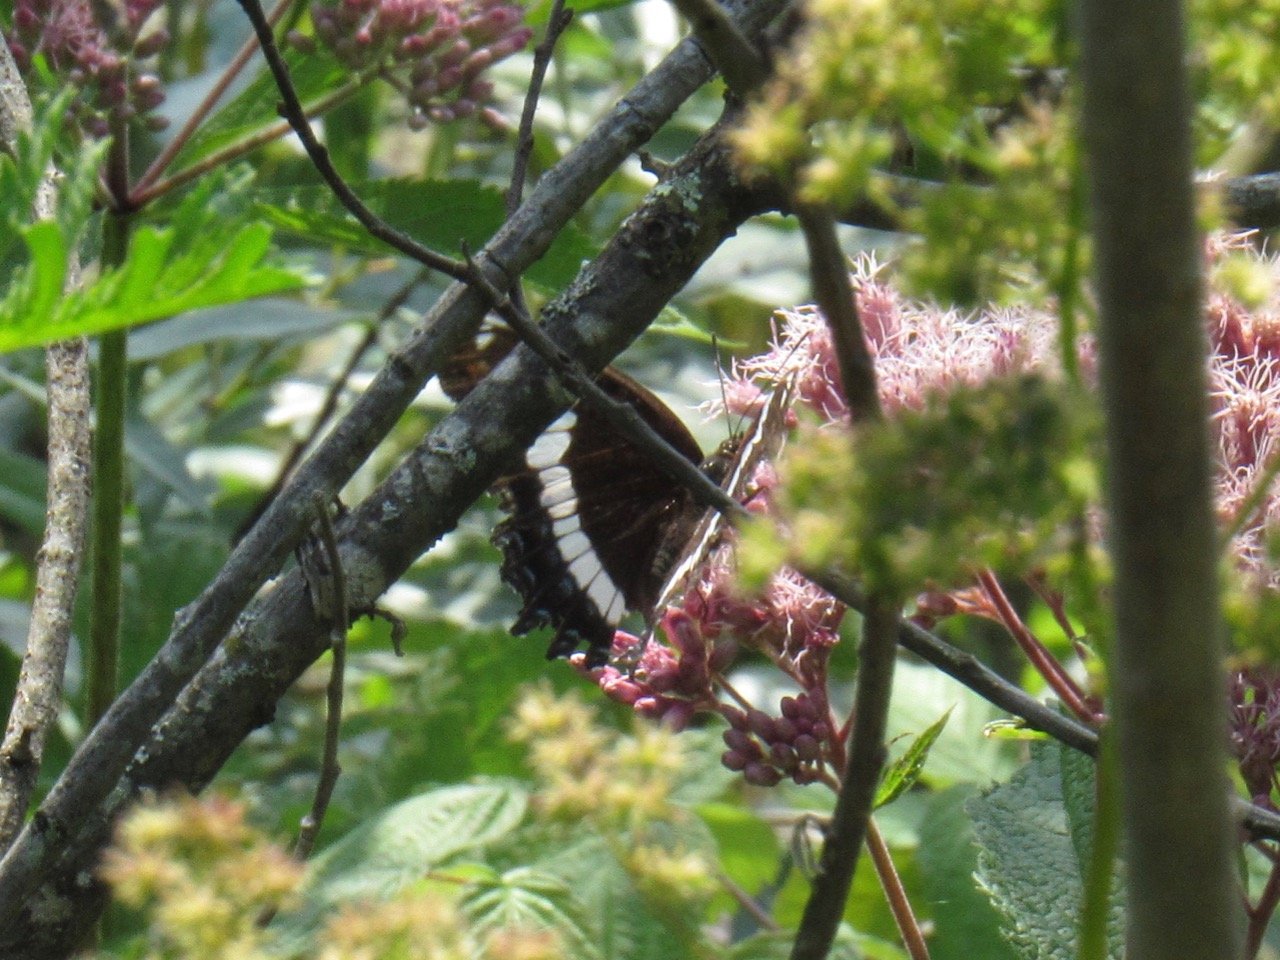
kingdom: Animalia
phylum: Arthropoda
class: Insecta
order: Lepidoptera
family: Nymphalidae
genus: Limenitis
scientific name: Limenitis arthemis
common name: Red-spotted Admiral
